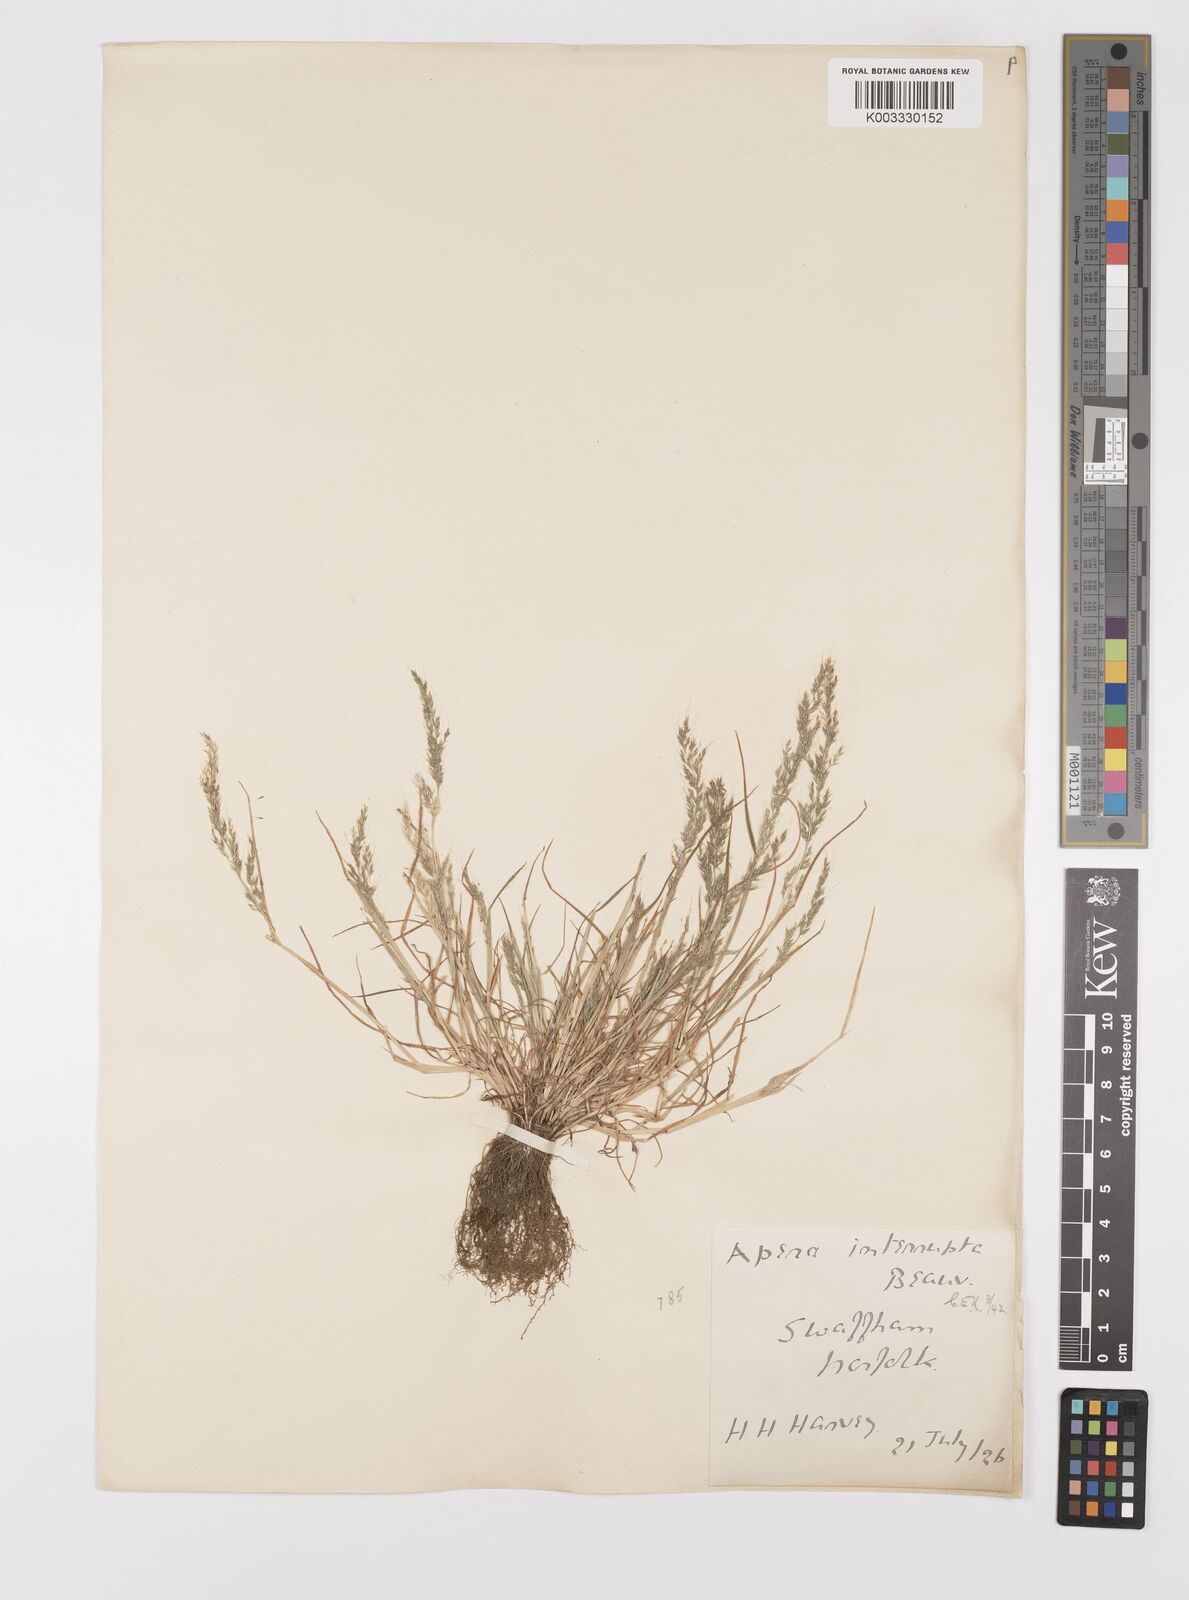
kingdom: Plantae
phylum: Tracheophyta
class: Liliopsida
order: Poales
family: Poaceae
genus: Apera
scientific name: Apera interrupta
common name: Dense silky-bent
